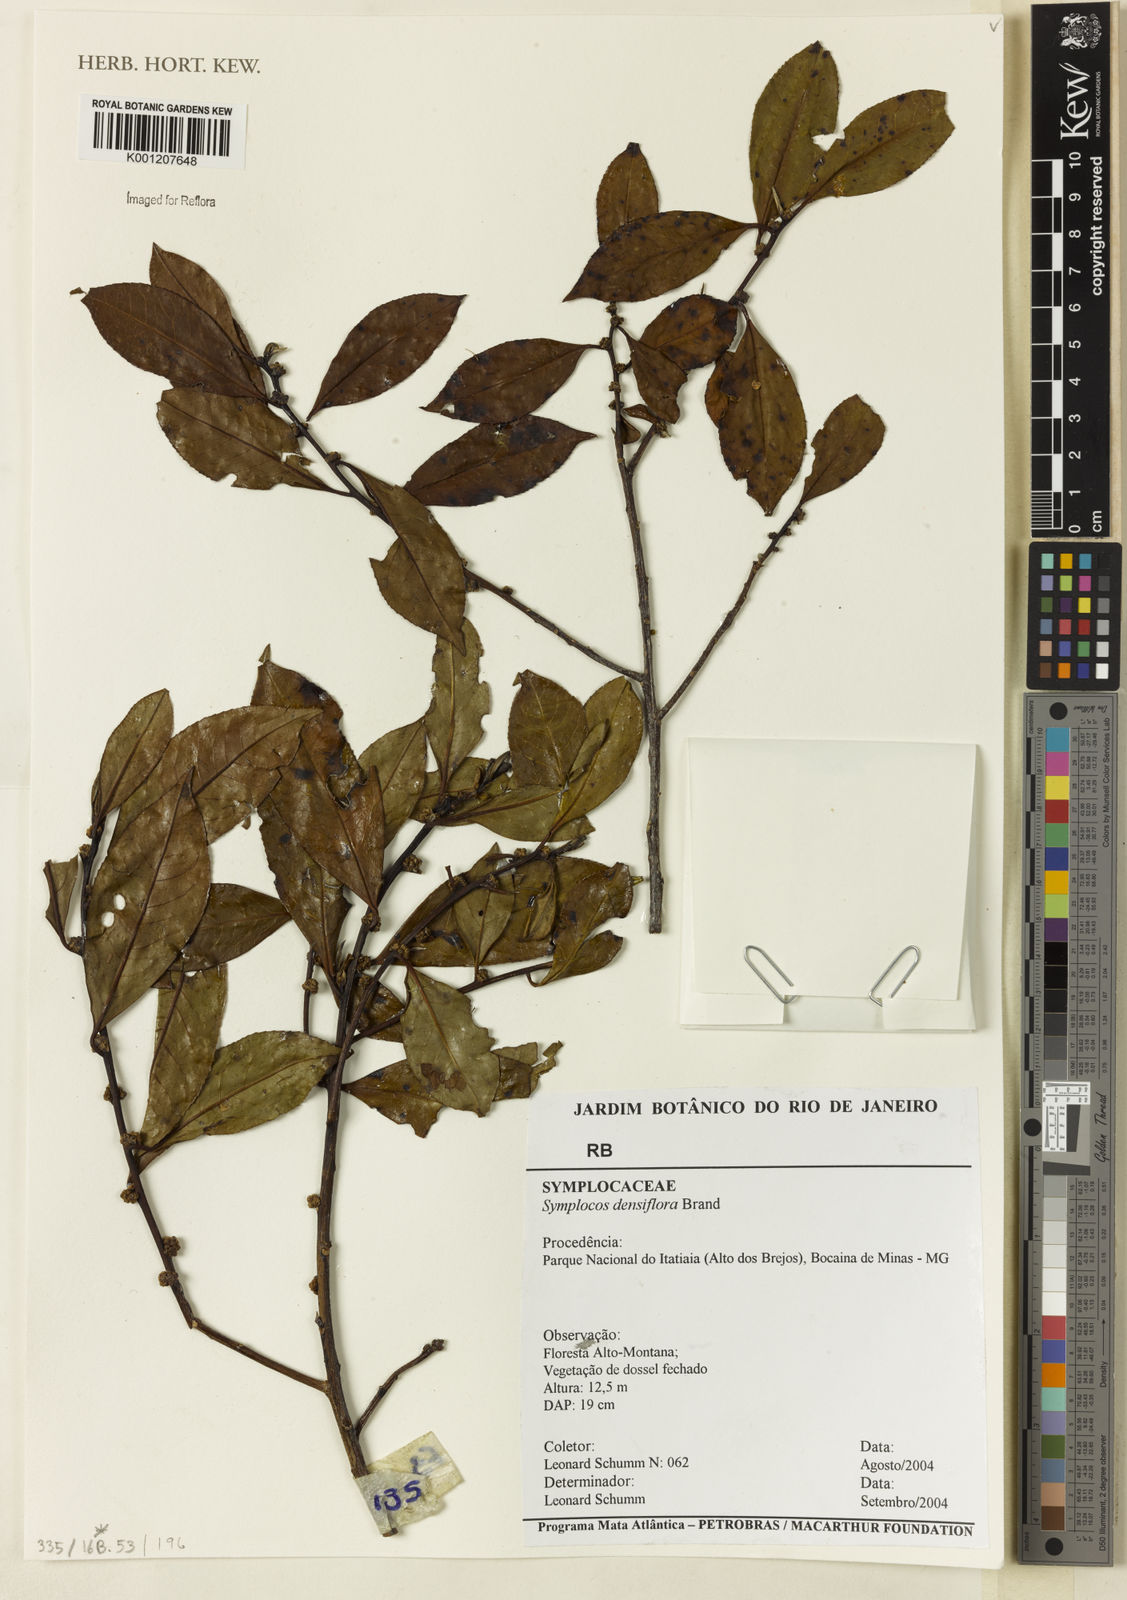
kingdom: Plantae
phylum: Tracheophyta
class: Magnoliopsida
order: Ericales
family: Symplocaceae
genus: Symplocos
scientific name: Symplocos falcata
